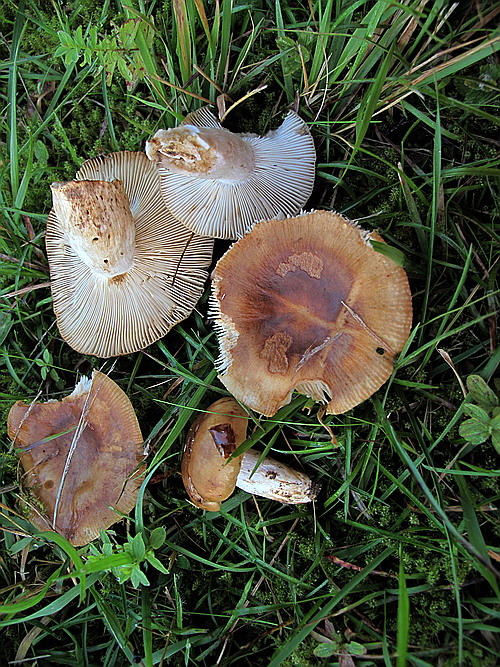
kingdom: Fungi
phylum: Basidiomycota
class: Agaricomycetes
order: Russulales
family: Russulaceae
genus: Russula
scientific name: Russula grata
